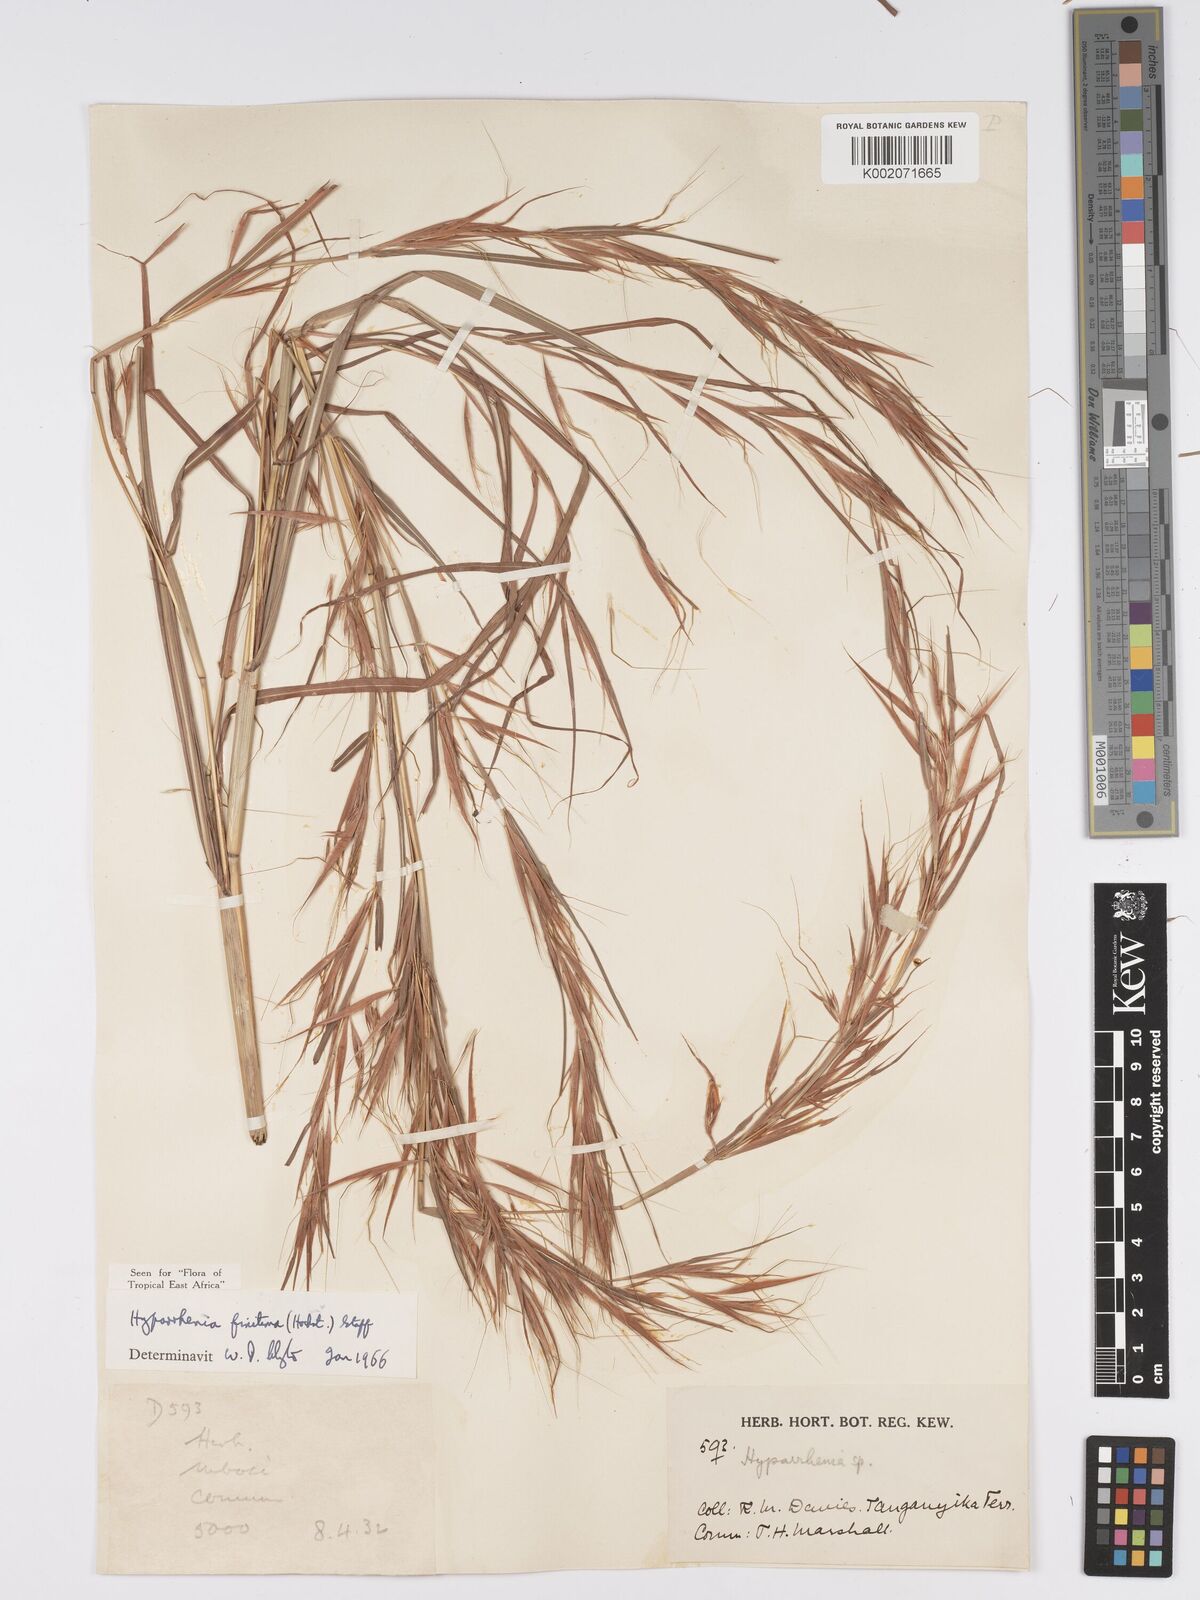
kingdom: Plantae
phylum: Tracheophyta
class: Liliopsida
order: Poales
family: Poaceae
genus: Hyparrhenia
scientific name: Hyparrhenia finitima
